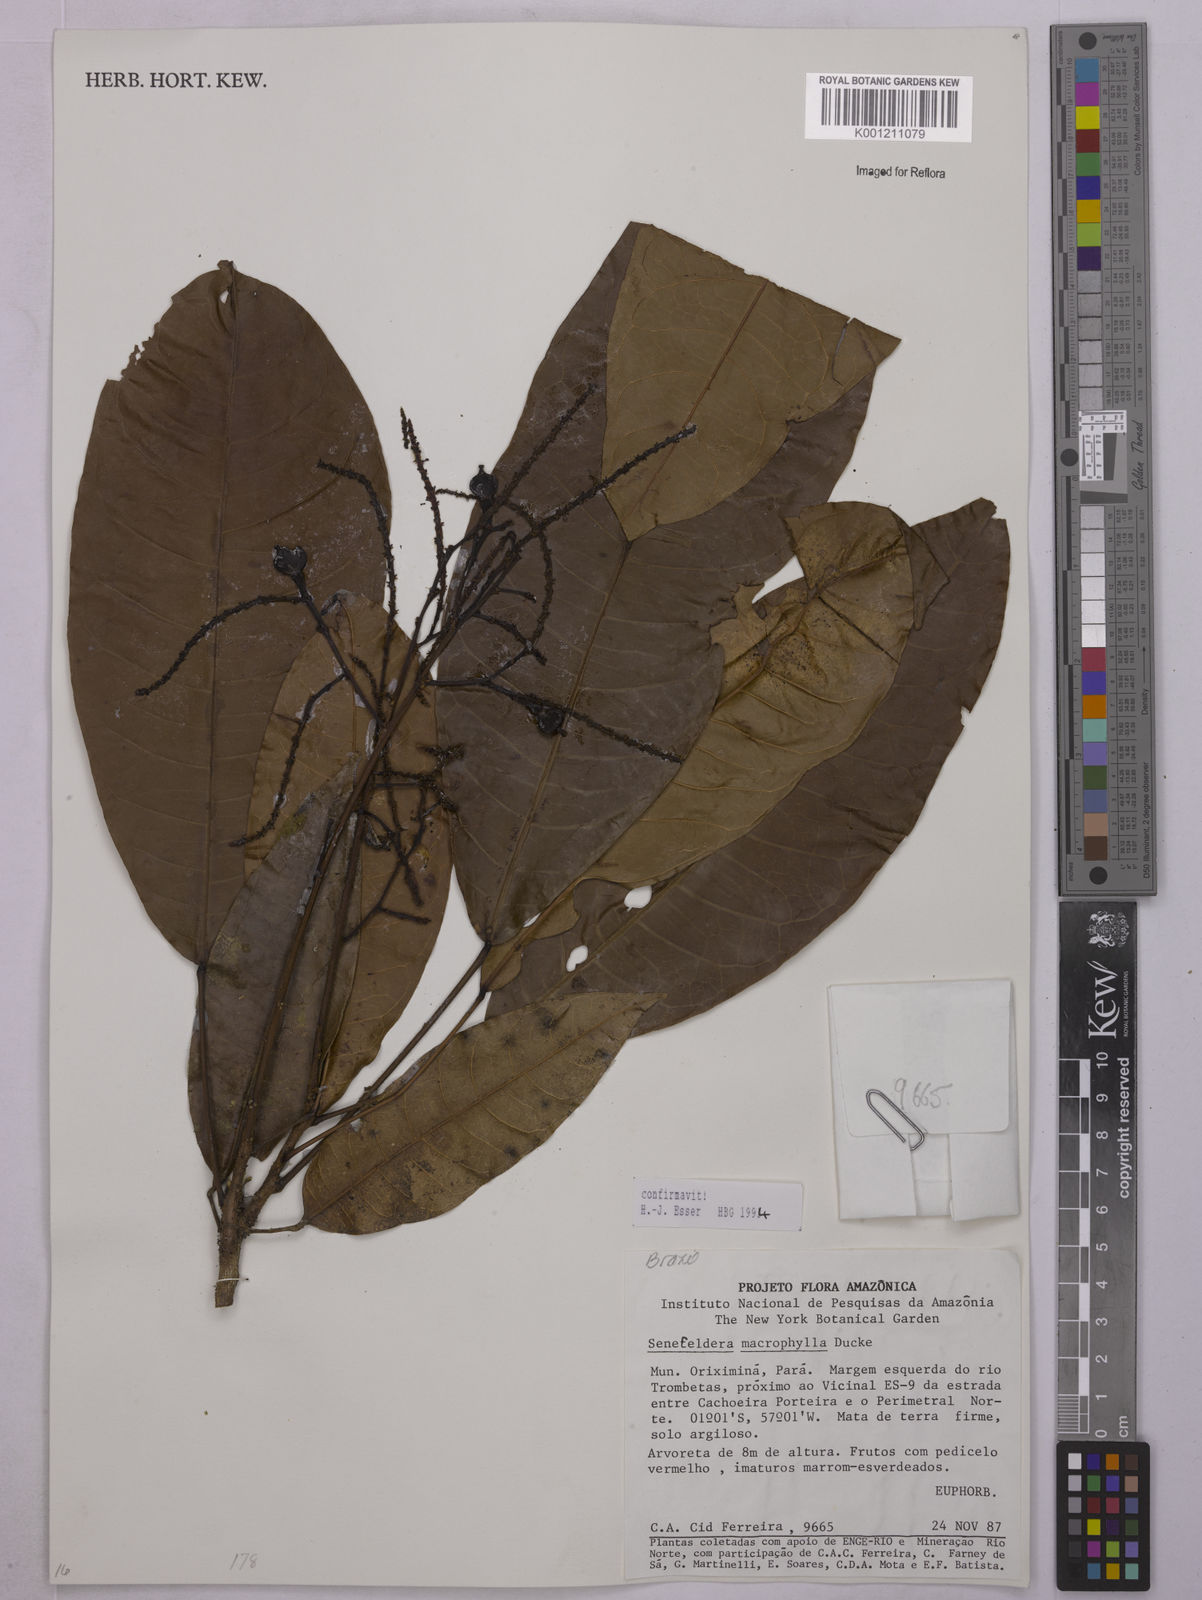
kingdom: Plantae
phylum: Tracheophyta
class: Magnoliopsida
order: Malpighiales
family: Euphorbiaceae
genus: Rhodothyrsus
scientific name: Rhodothyrsus macrophyllus
